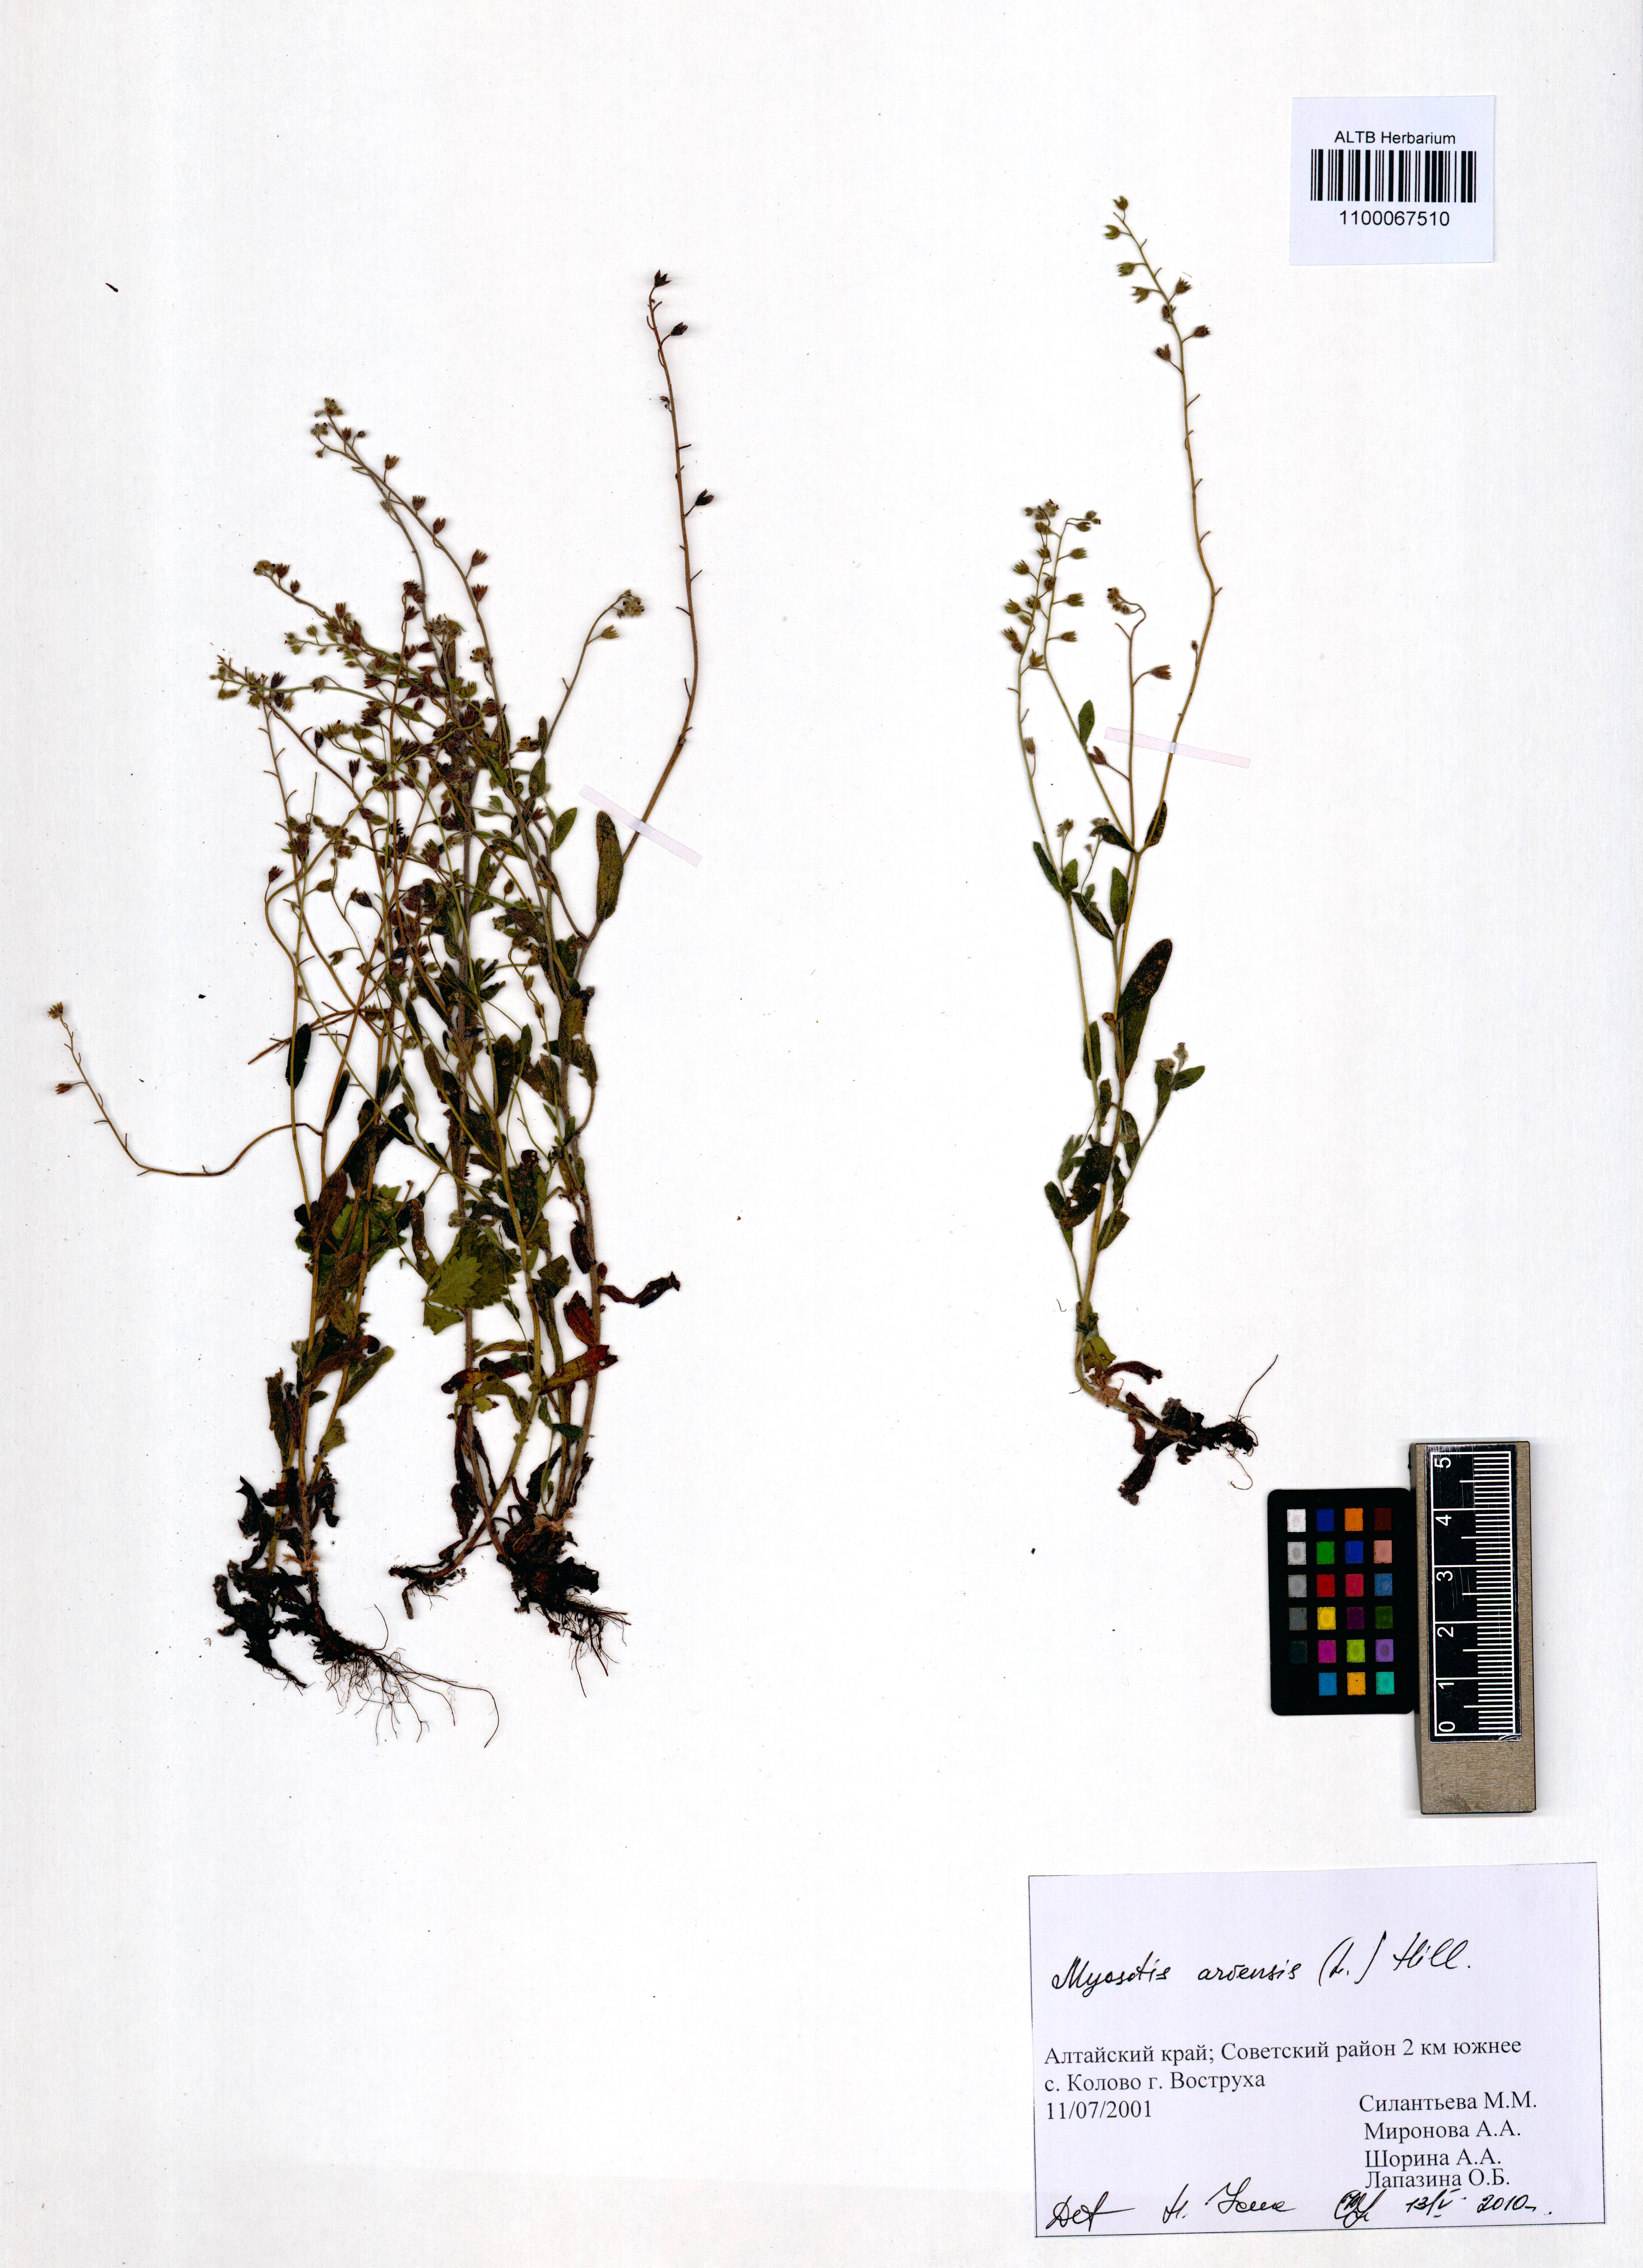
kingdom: Plantae
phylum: Tracheophyta
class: Magnoliopsida
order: Boraginales
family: Boraginaceae
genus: Myosotis
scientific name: Myosotis arvensis
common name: Field forget-me-not
